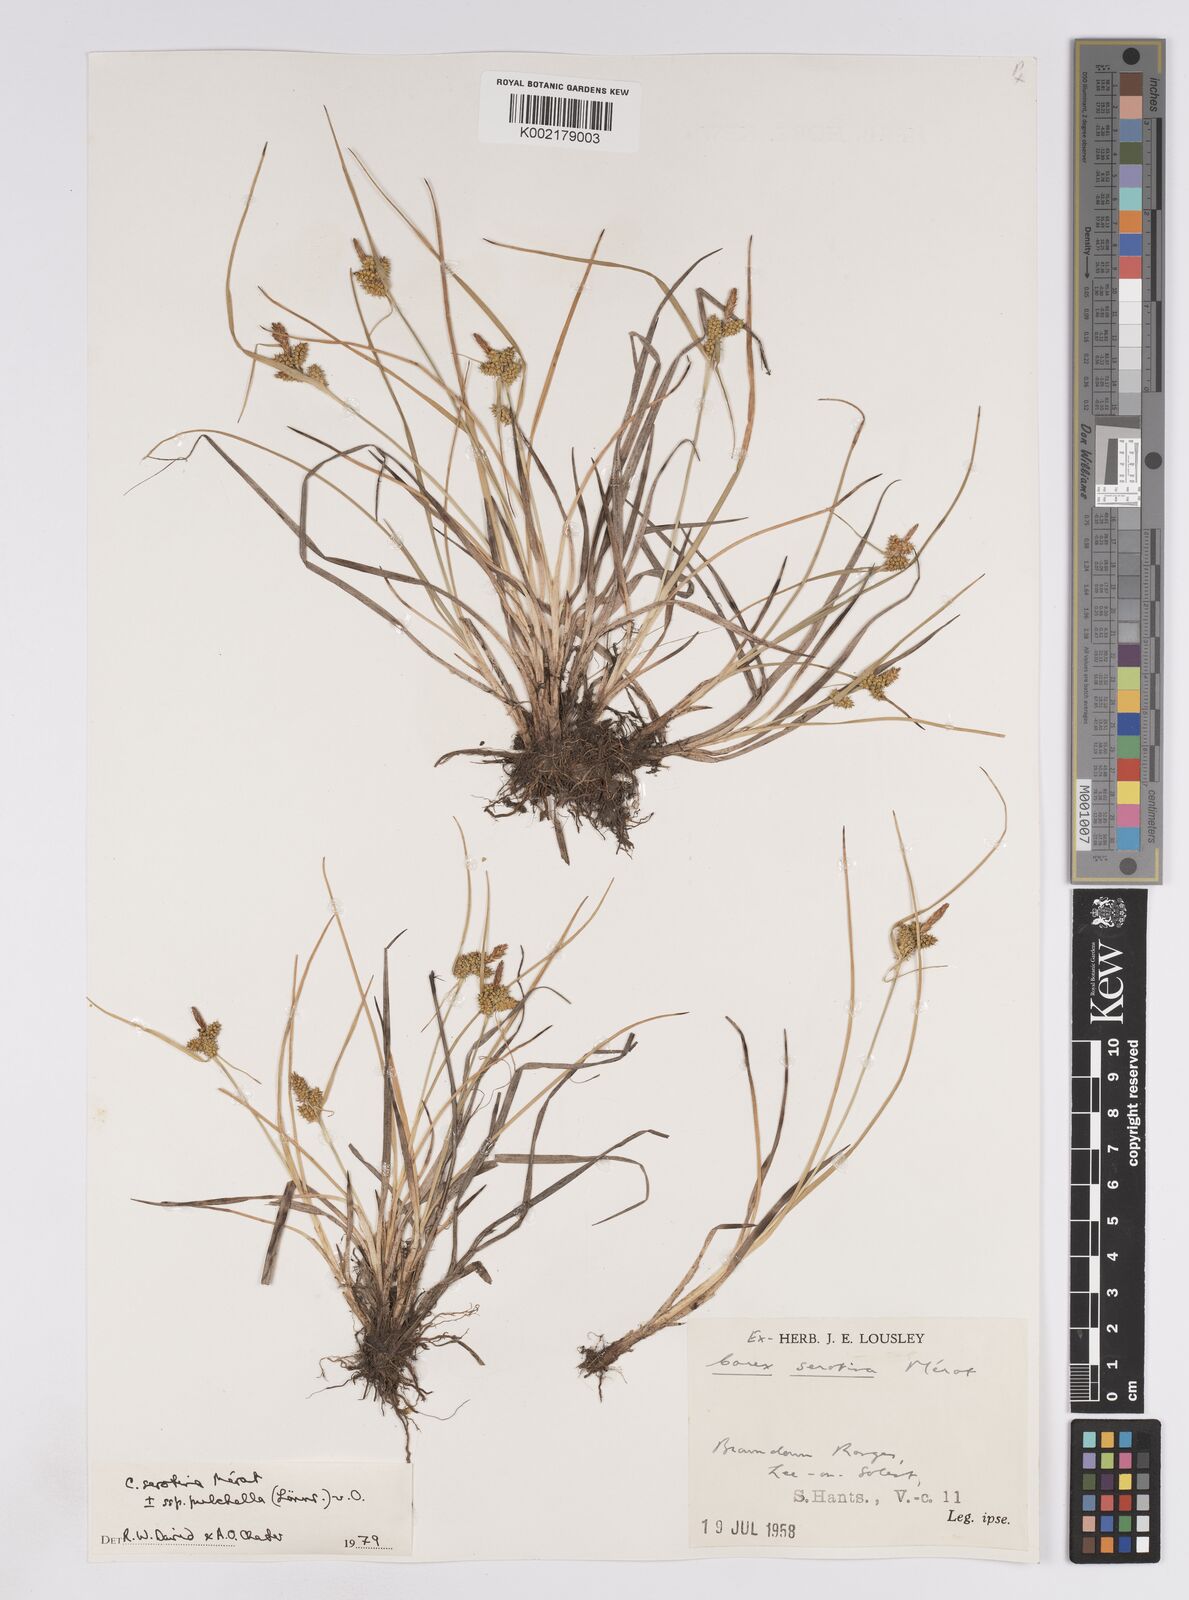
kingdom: Plantae
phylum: Tracheophyta
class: Liliopsida
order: Poales
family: Cyperaceae
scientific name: Cyperaceae
